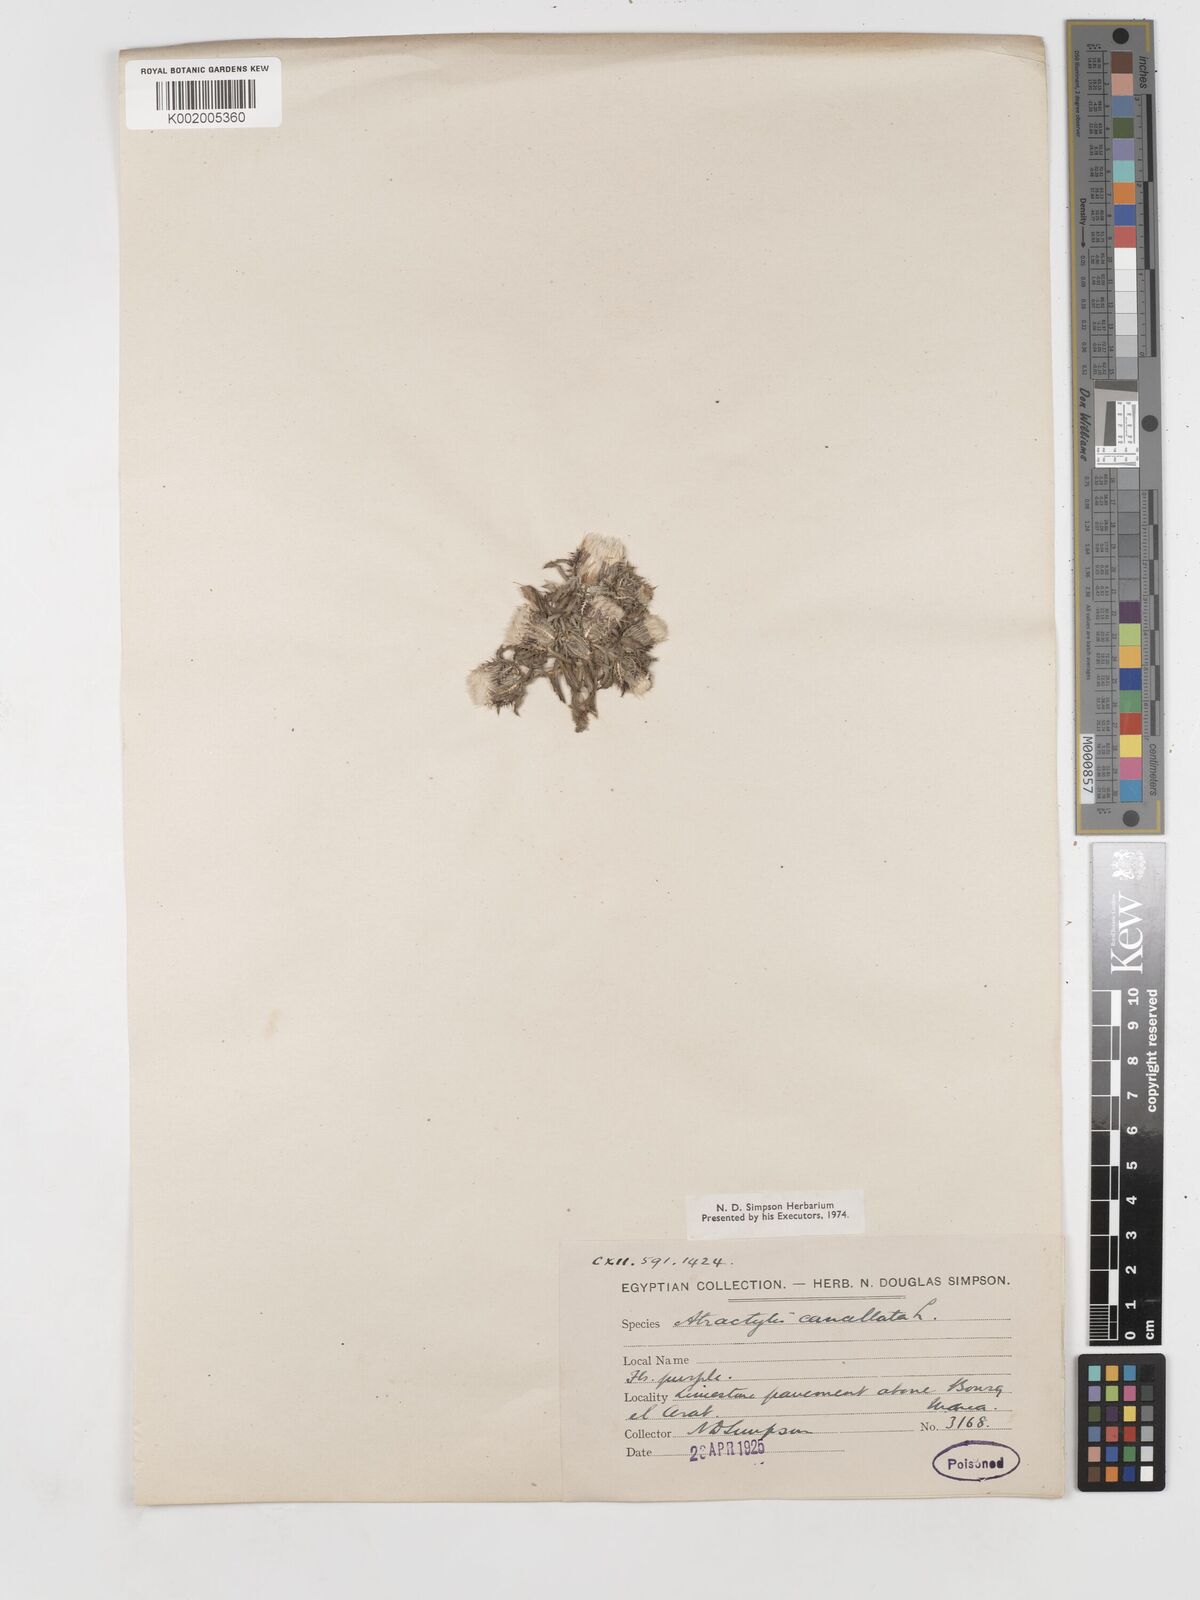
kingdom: Plantae
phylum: Tracheophyta
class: Magnoliopsida
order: Asterales
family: Asteraceae
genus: Atractylis
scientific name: Atractylis cancellata
